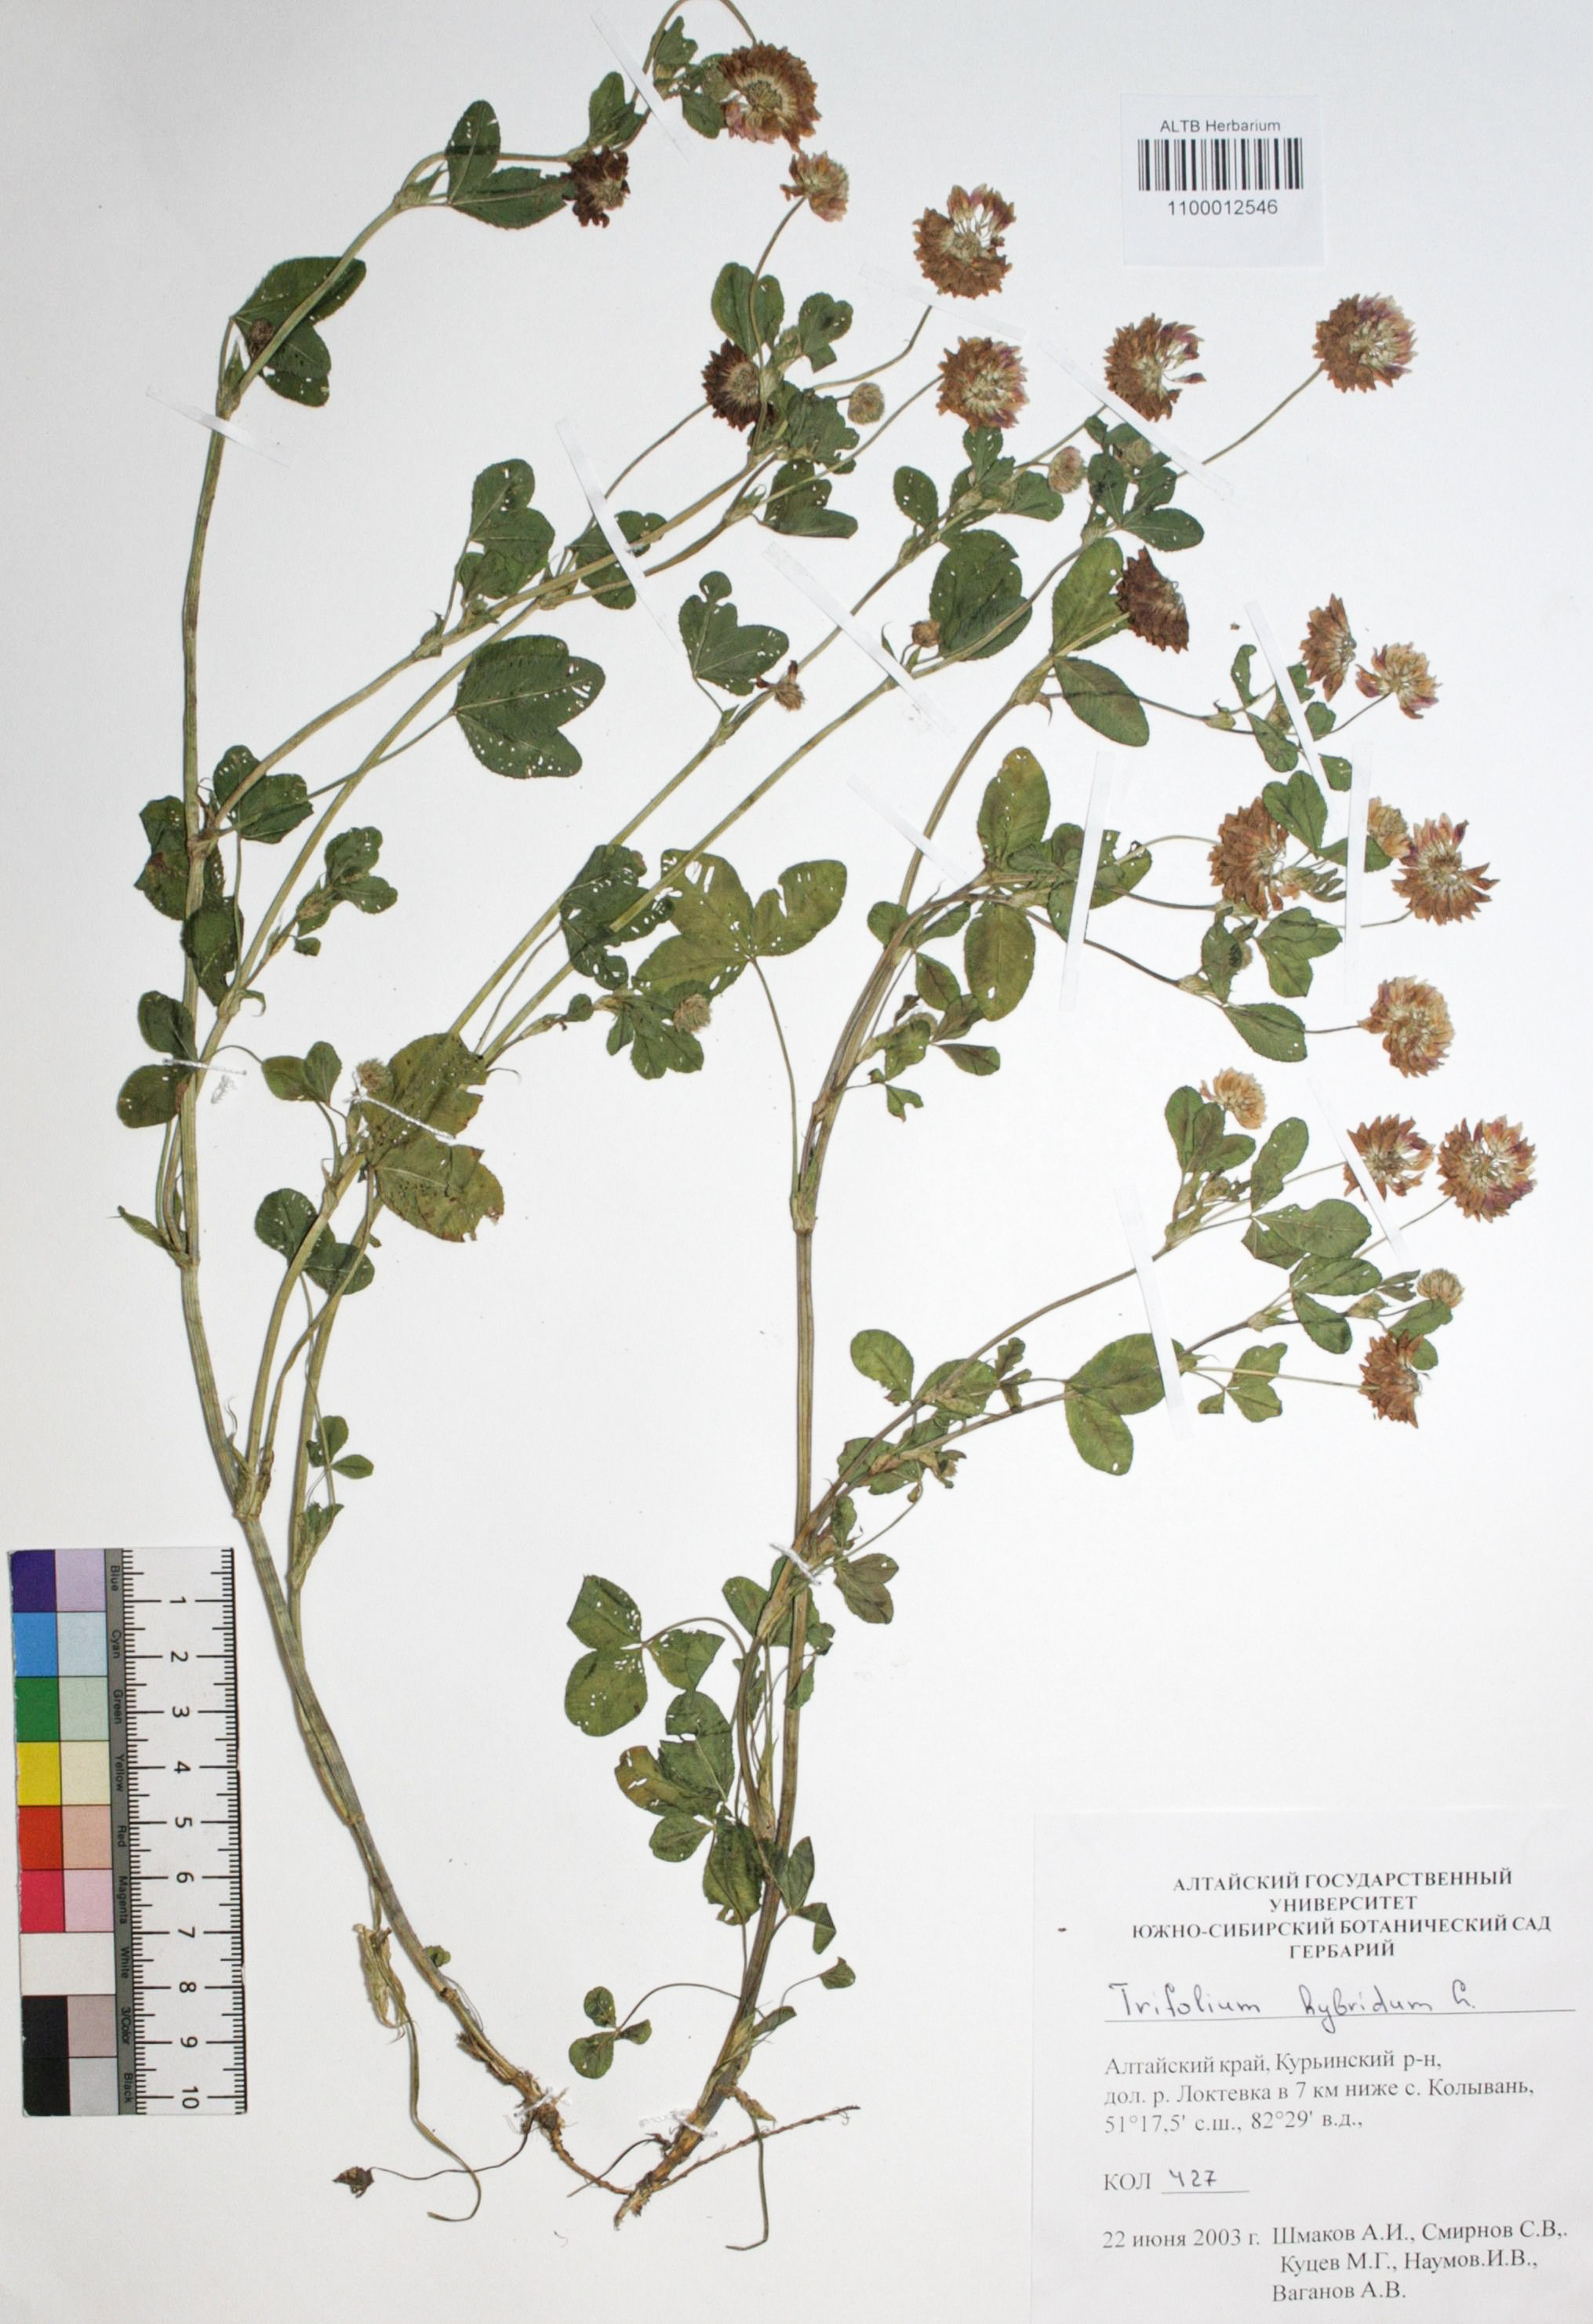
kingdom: Plantae
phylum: Tracheophyta
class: Magnoliopsida
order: Fabales
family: Fabaceae
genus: Trifolium
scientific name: Trifolium hybridum
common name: Alsike clover
